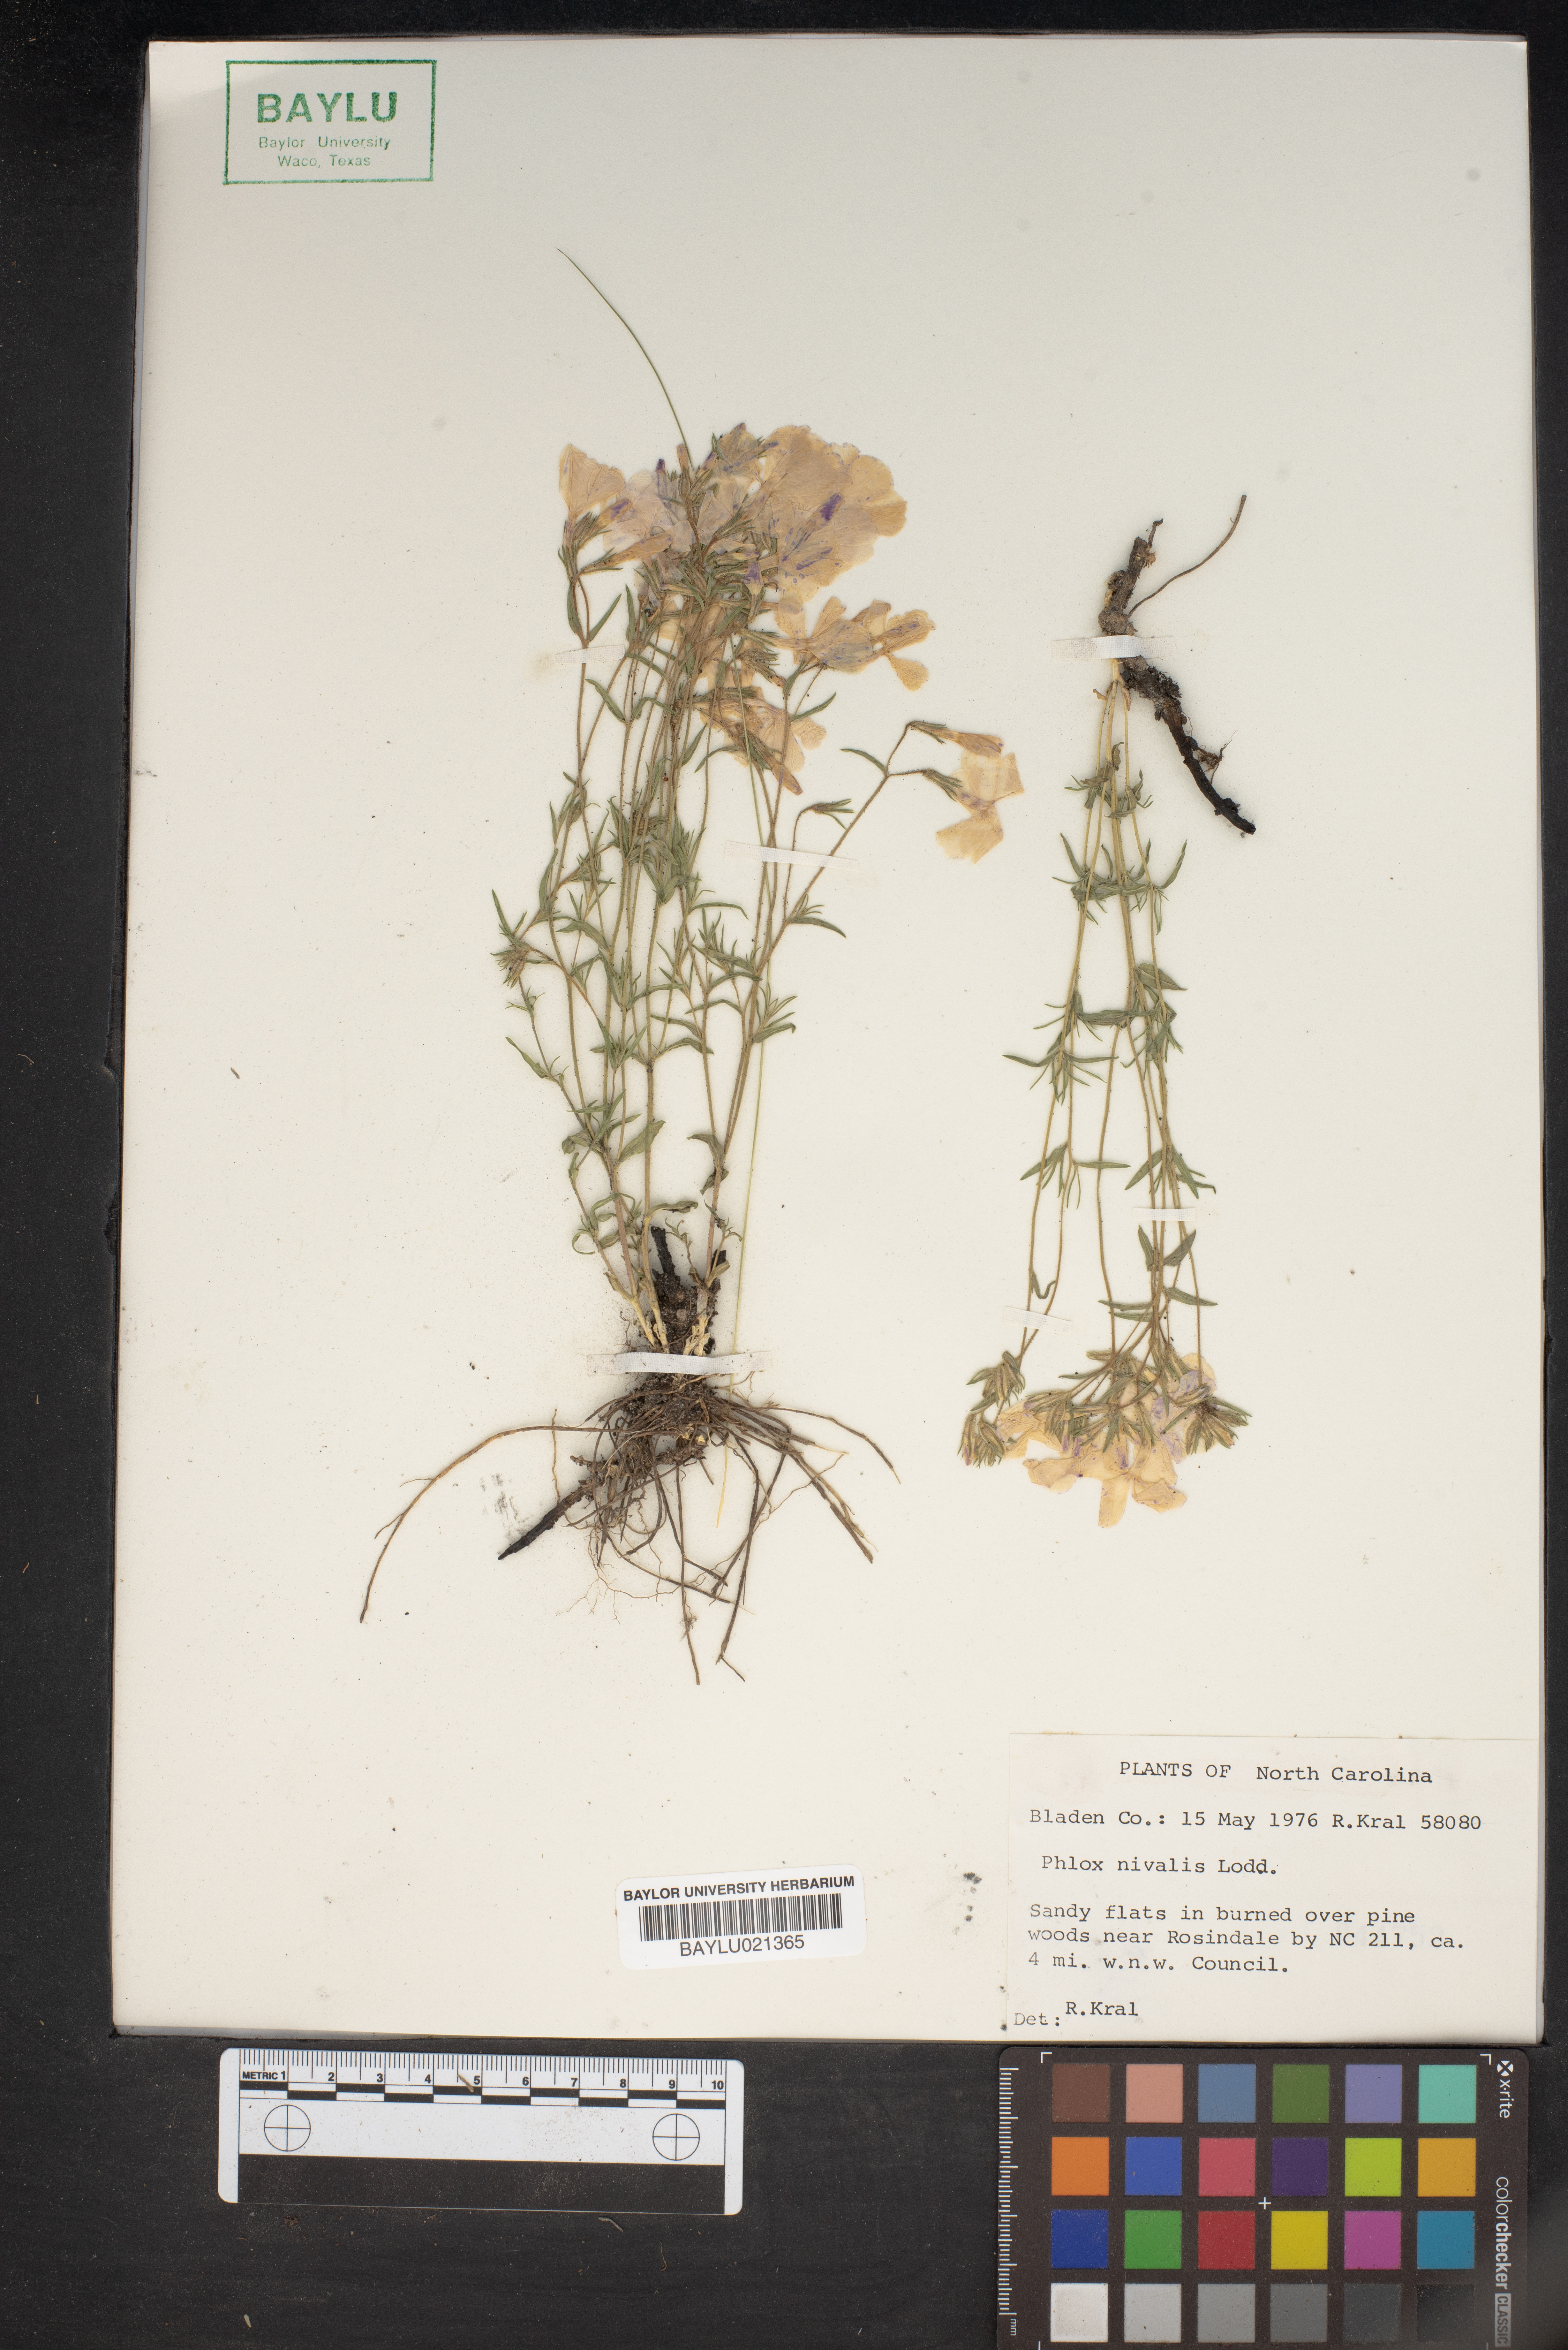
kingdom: Plantae
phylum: Tracheophyta
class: Magnoliopsida
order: Ericales
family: Polemoniaceae
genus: Phlox
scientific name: Phlox nivalis
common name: Trailing phlox
